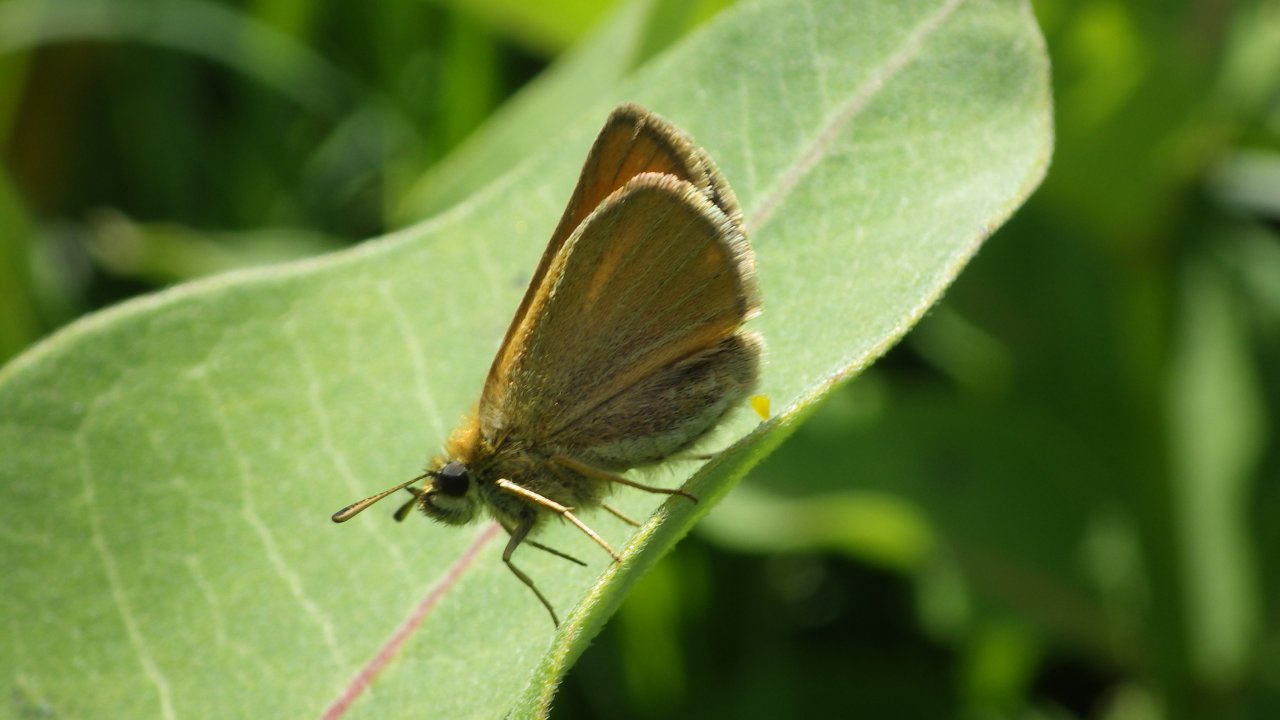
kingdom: Animalia
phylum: Arthropoda
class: Insecta
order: Lepidoptera
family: Hesperiidae
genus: Thymelicus
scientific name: Thymelicus lineola
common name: European Skipper
